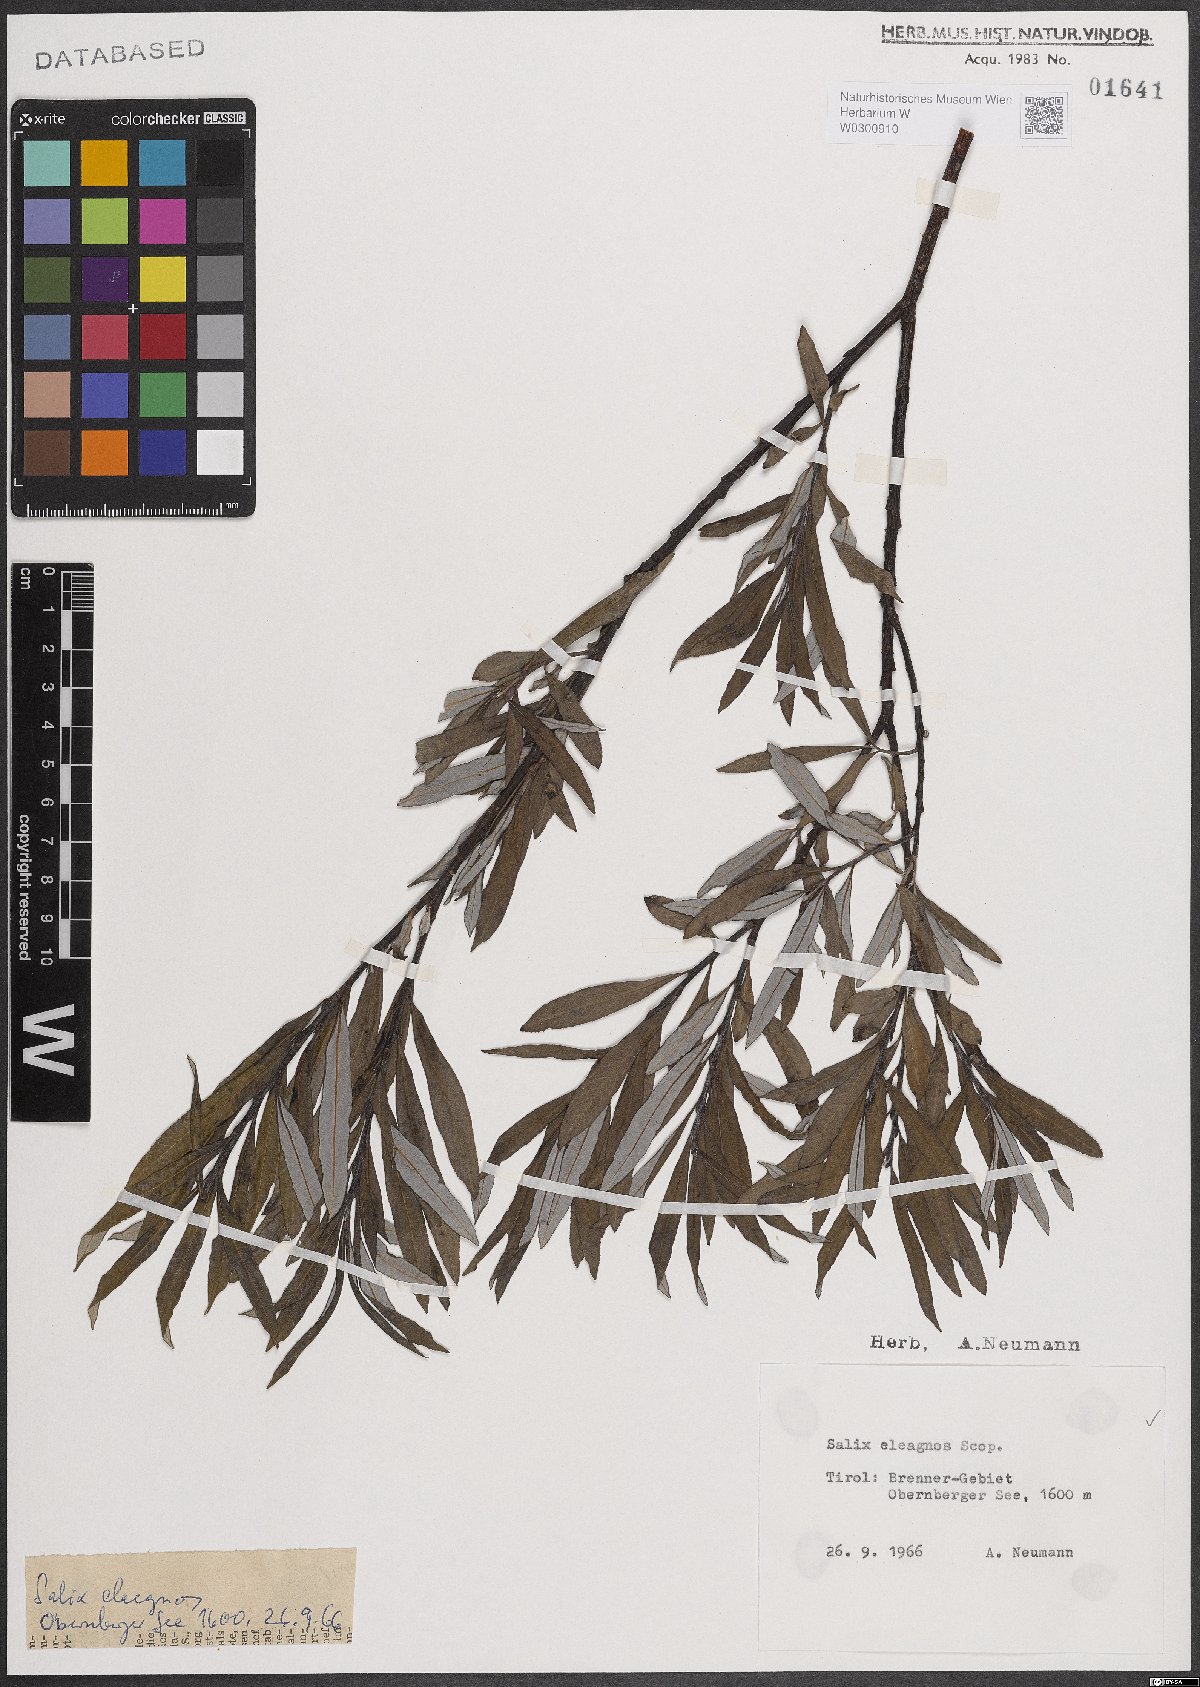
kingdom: Plantae
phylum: Tracheophyta
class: Magnoliopsida
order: Malpighiales
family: Salicaceae
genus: Salix
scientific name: Salix eleagnos
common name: Elaeagnus willow
